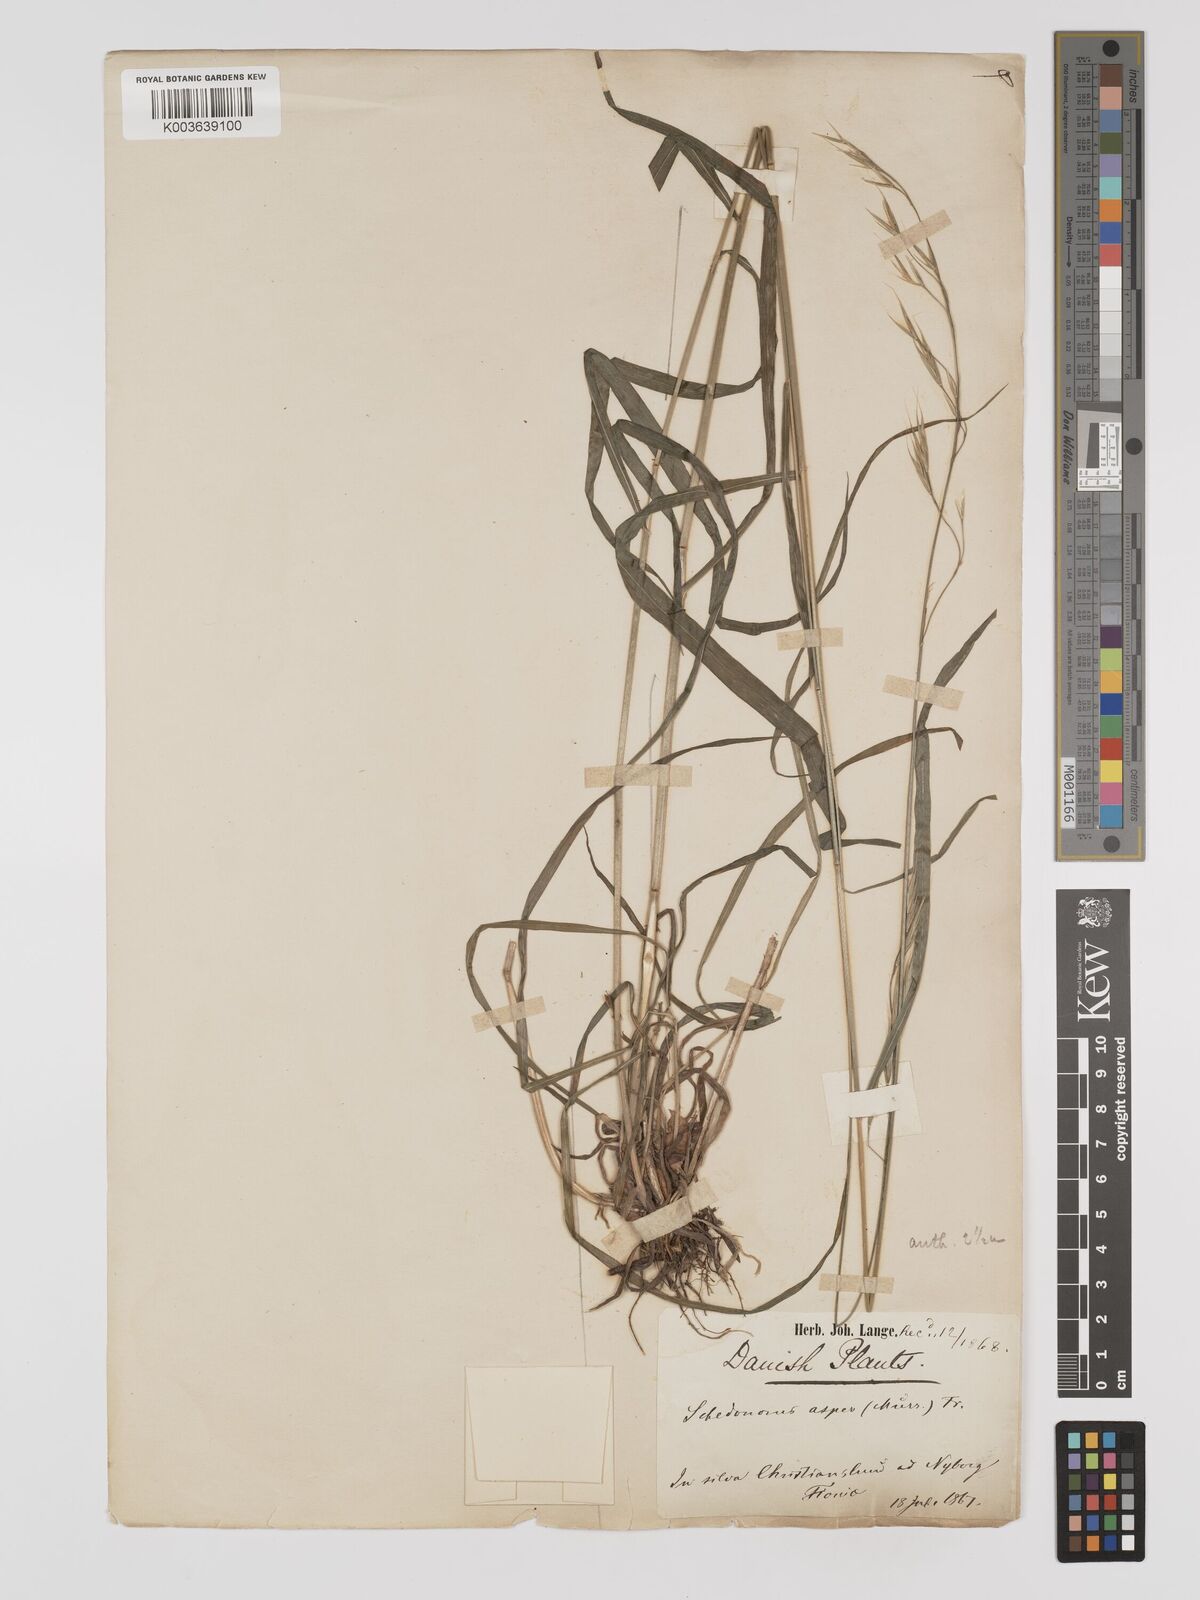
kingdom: Plantae
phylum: Tracheophyta
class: Liliopsida
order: Poales
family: Poaceae
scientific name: Poaceae
